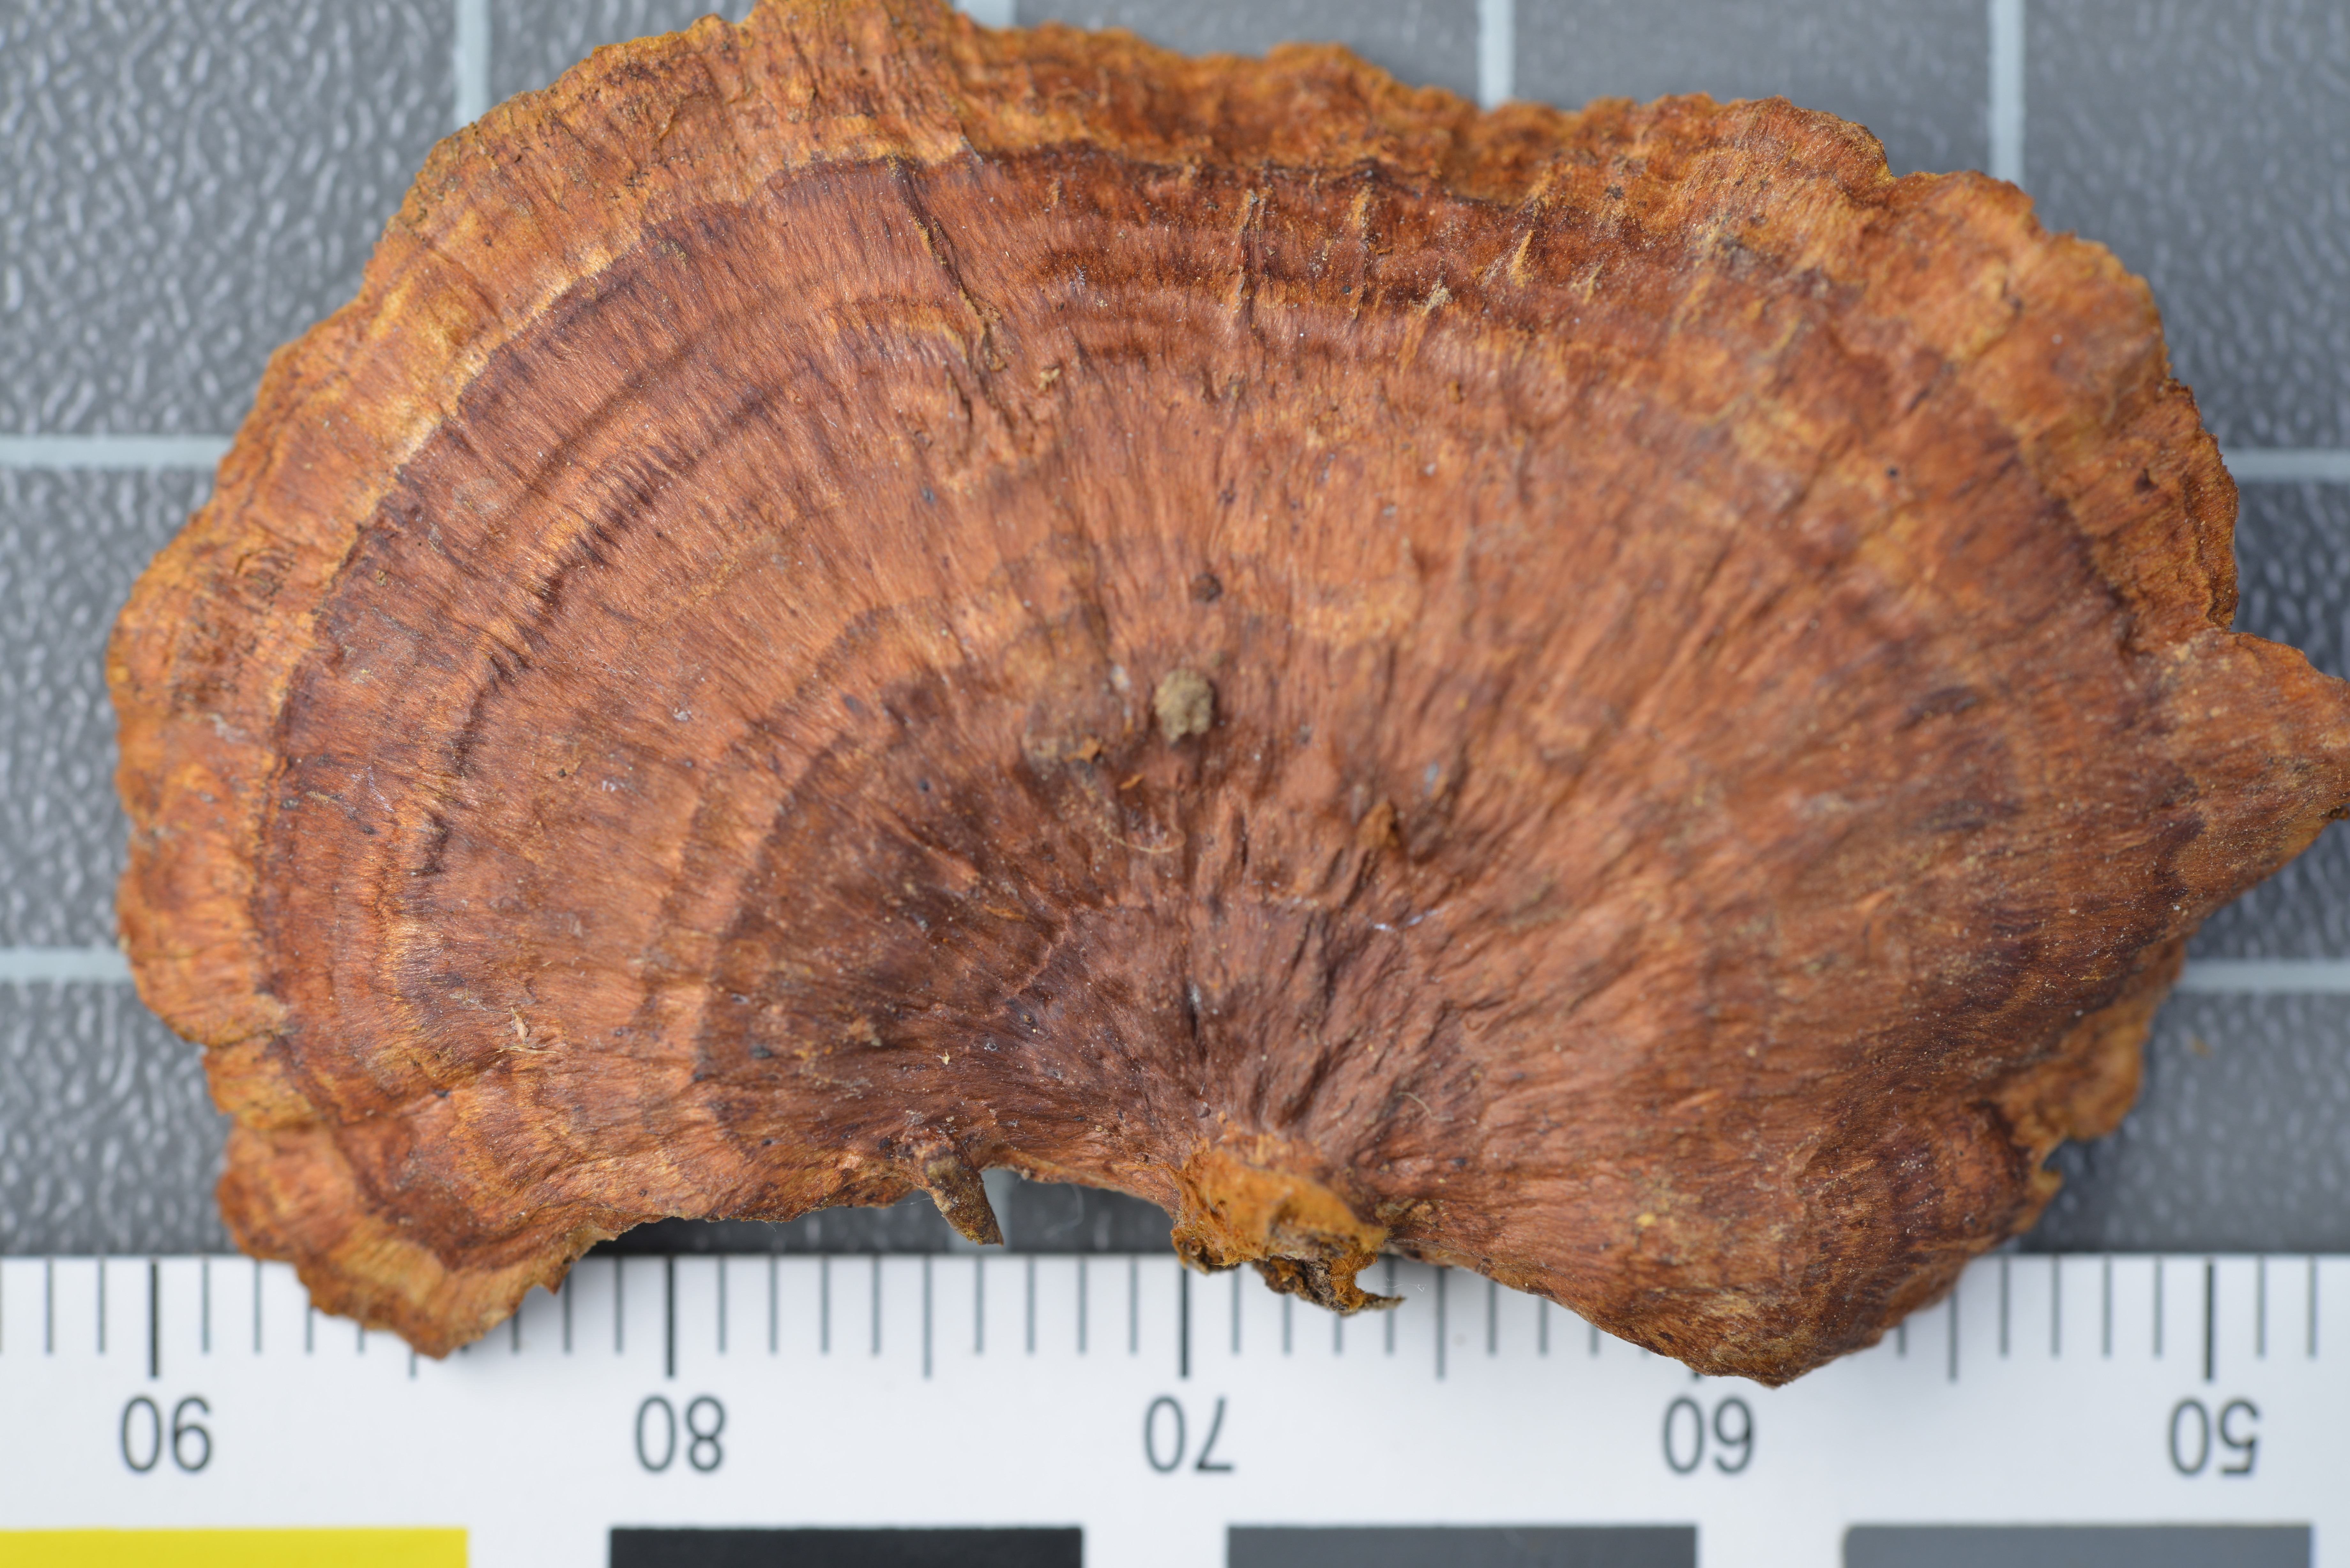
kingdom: Fungi
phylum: Basidiomycota
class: Agaricomycetes
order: Hymenochaetales
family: Hymenochaetaceae
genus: Fuscoporia
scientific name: Fuscoporia cylindrospora
